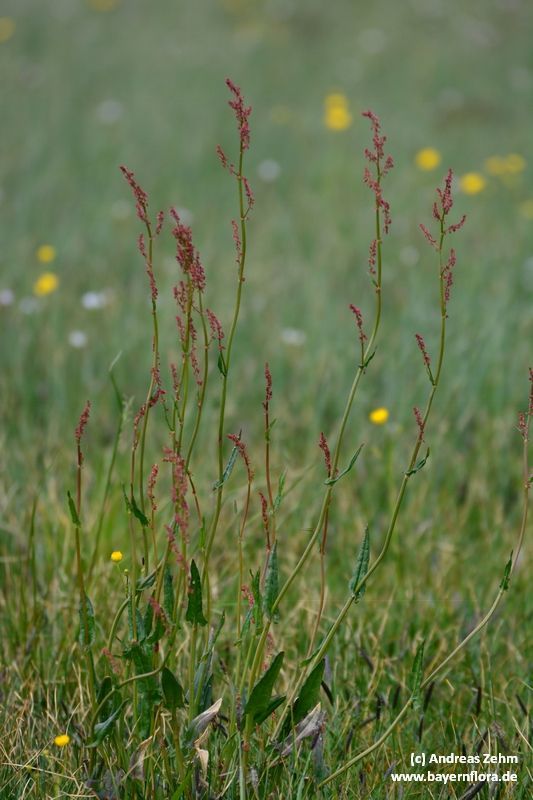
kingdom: Plantae
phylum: Tracheophyta
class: Magnoliopsida
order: Caryophyllales
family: Polygonaceae
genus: Rumex
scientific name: Rumex acetosa
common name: Garden sorrel
